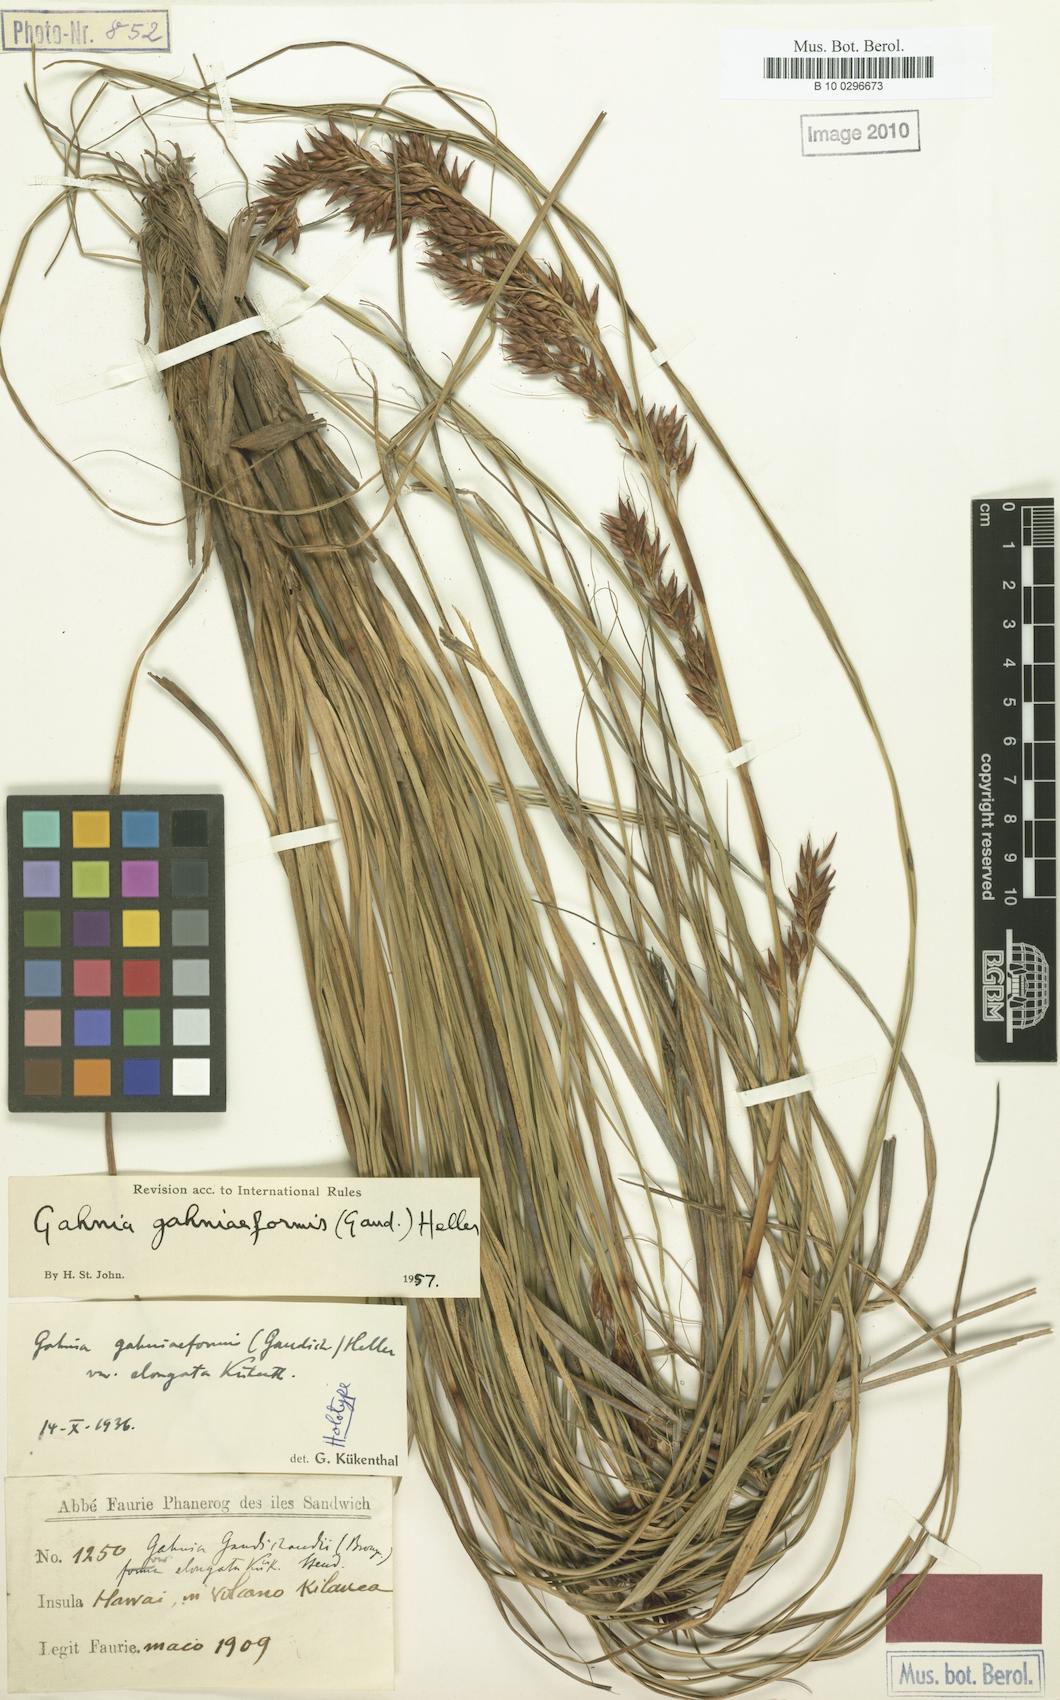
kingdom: Plantae
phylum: Tracheophyta
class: Liliopsida
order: Poales
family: Cyperaceae
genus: Morelotia
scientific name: Morelotia gahniiformis
